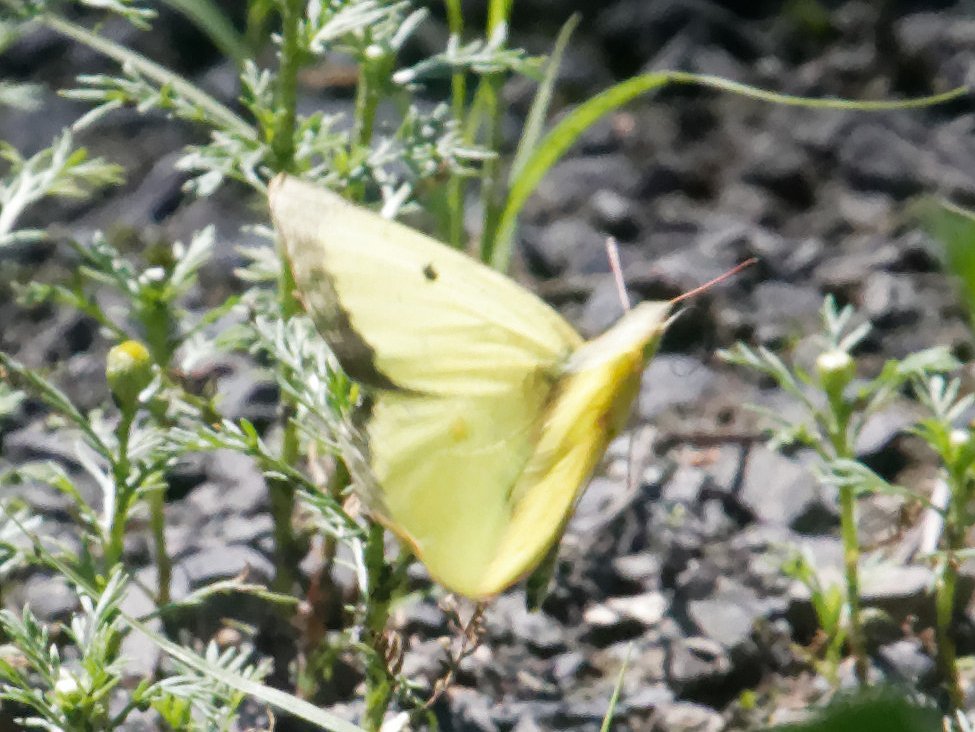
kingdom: Animalia
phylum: Arthropoda
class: Insecta
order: Lepidoptera
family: Pieridae
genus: Colias
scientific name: Colias philodice
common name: Clouded Sulphur
